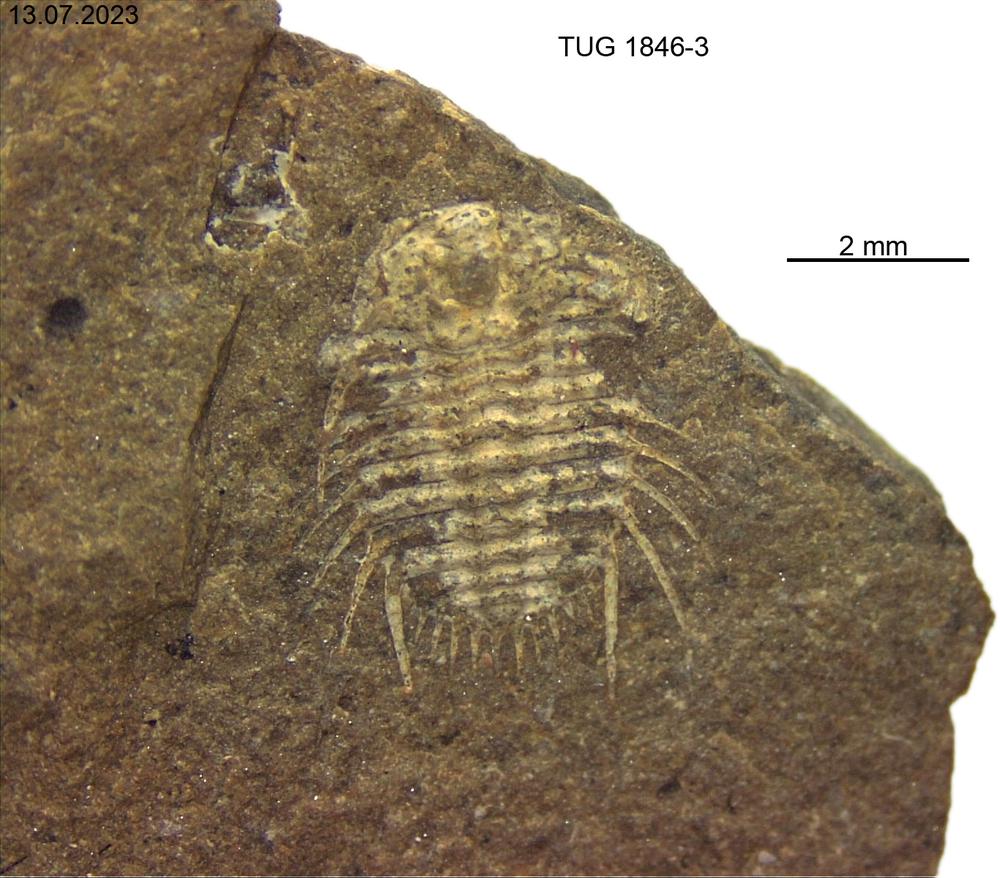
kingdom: Animalia
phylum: Arthropoda
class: Trilobita
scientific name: Trilobita
